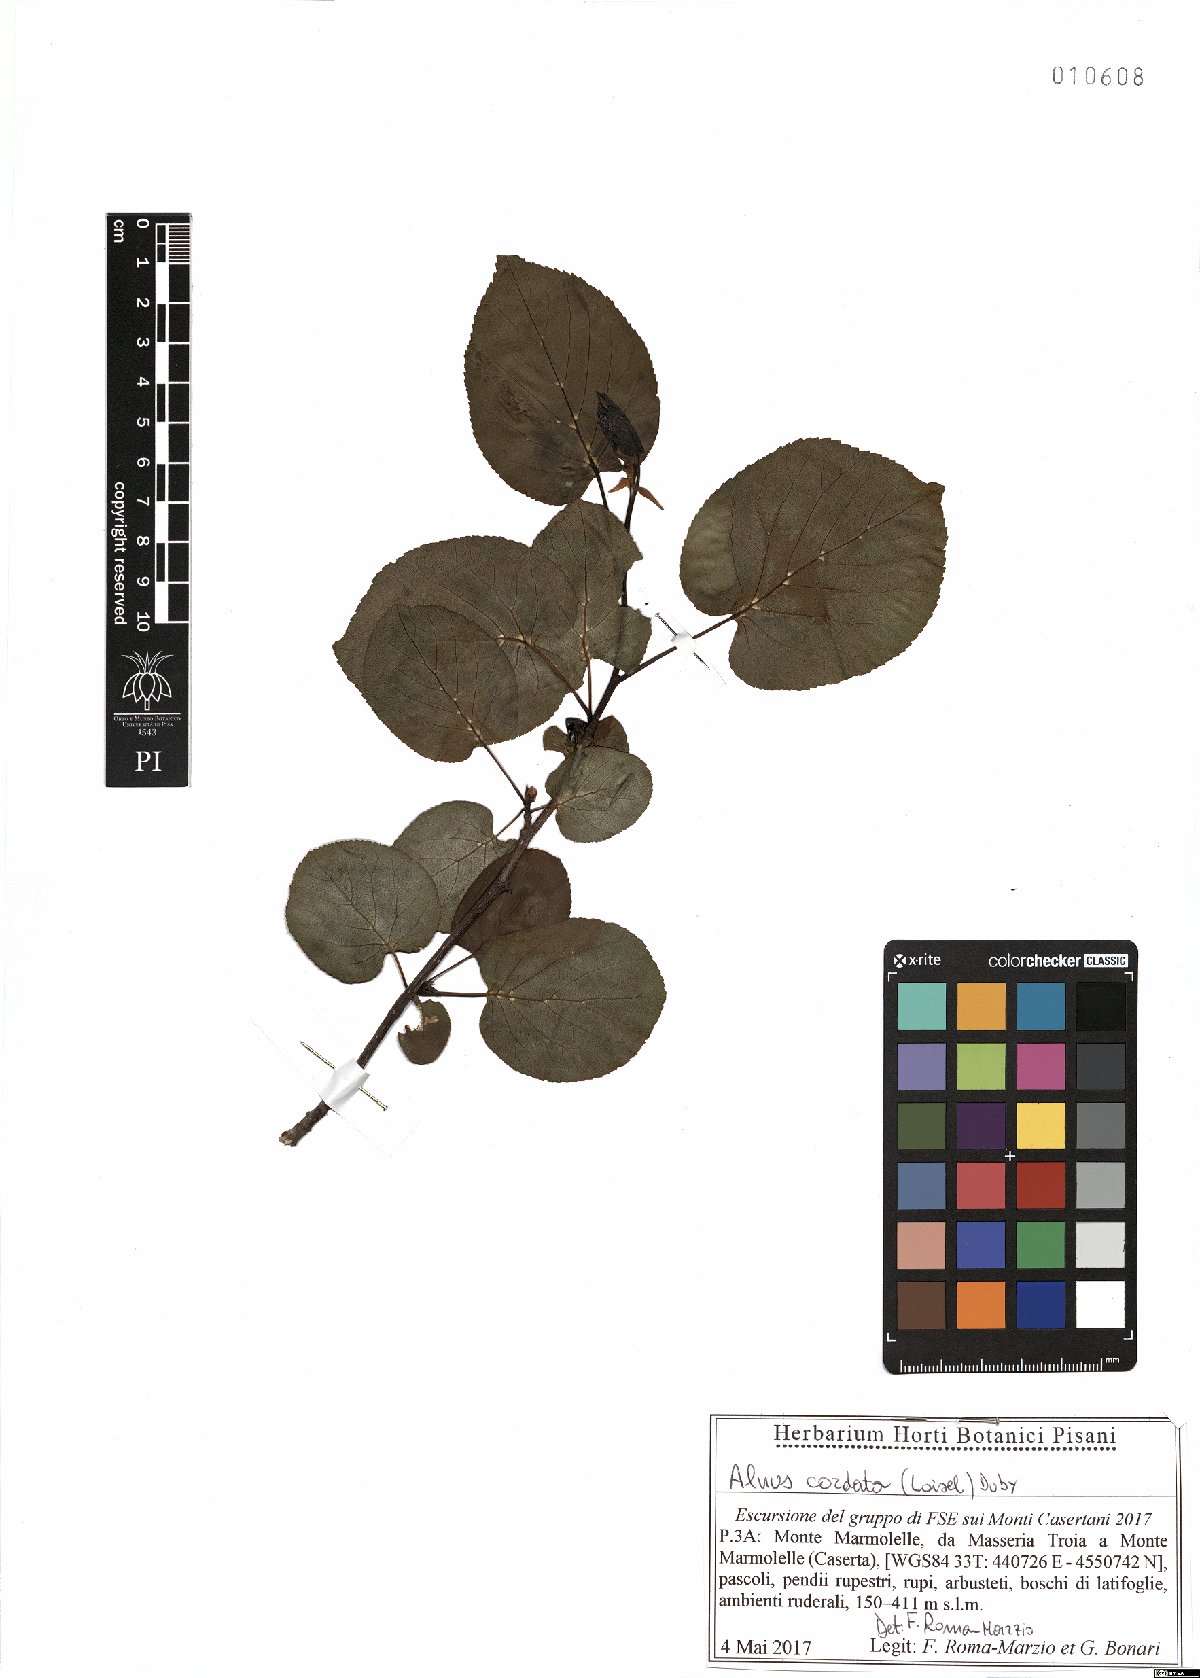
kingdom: Plantae
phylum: Tracheophyta
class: Magnoliopsida
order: Fagales
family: Betulaceae
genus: Alnus
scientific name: Alnus cordata
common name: Italian alder
